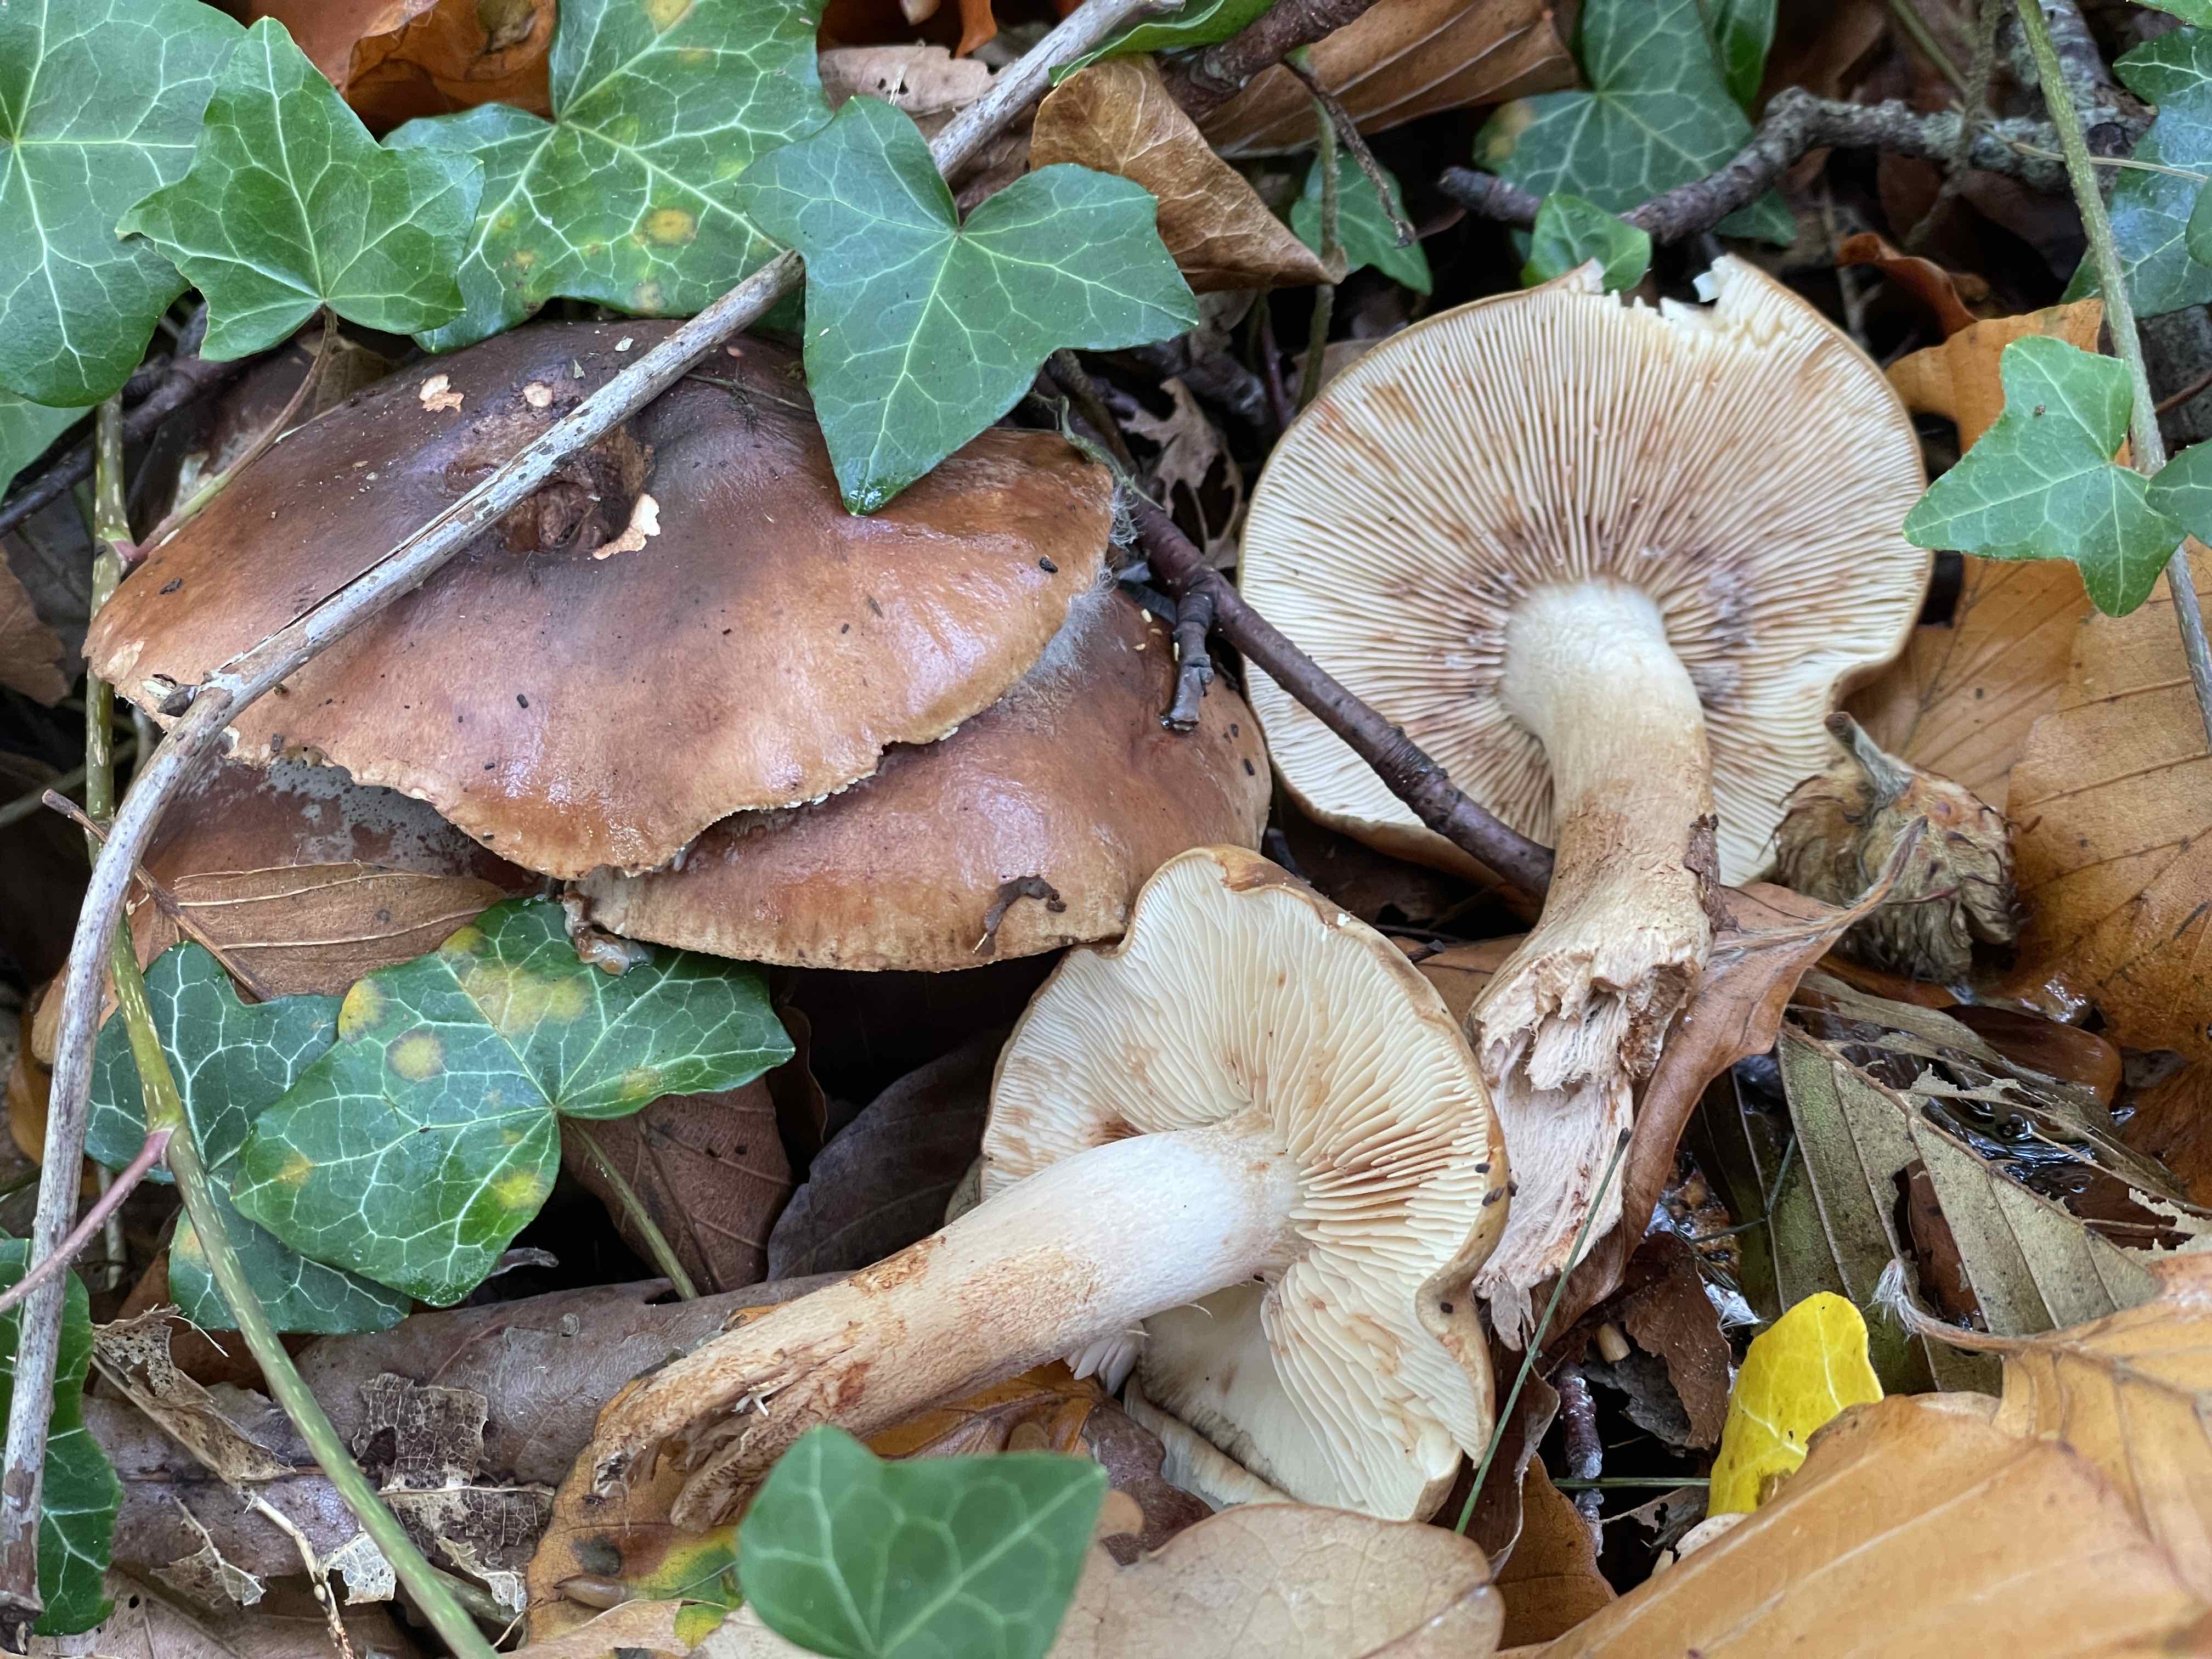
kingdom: Fungi
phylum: Basidiomycota
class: Agaricomycetes
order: Agaricales
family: Tricholomataceae
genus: Tricholoma
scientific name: Tricholoma ustale
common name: sveden ridderhat
